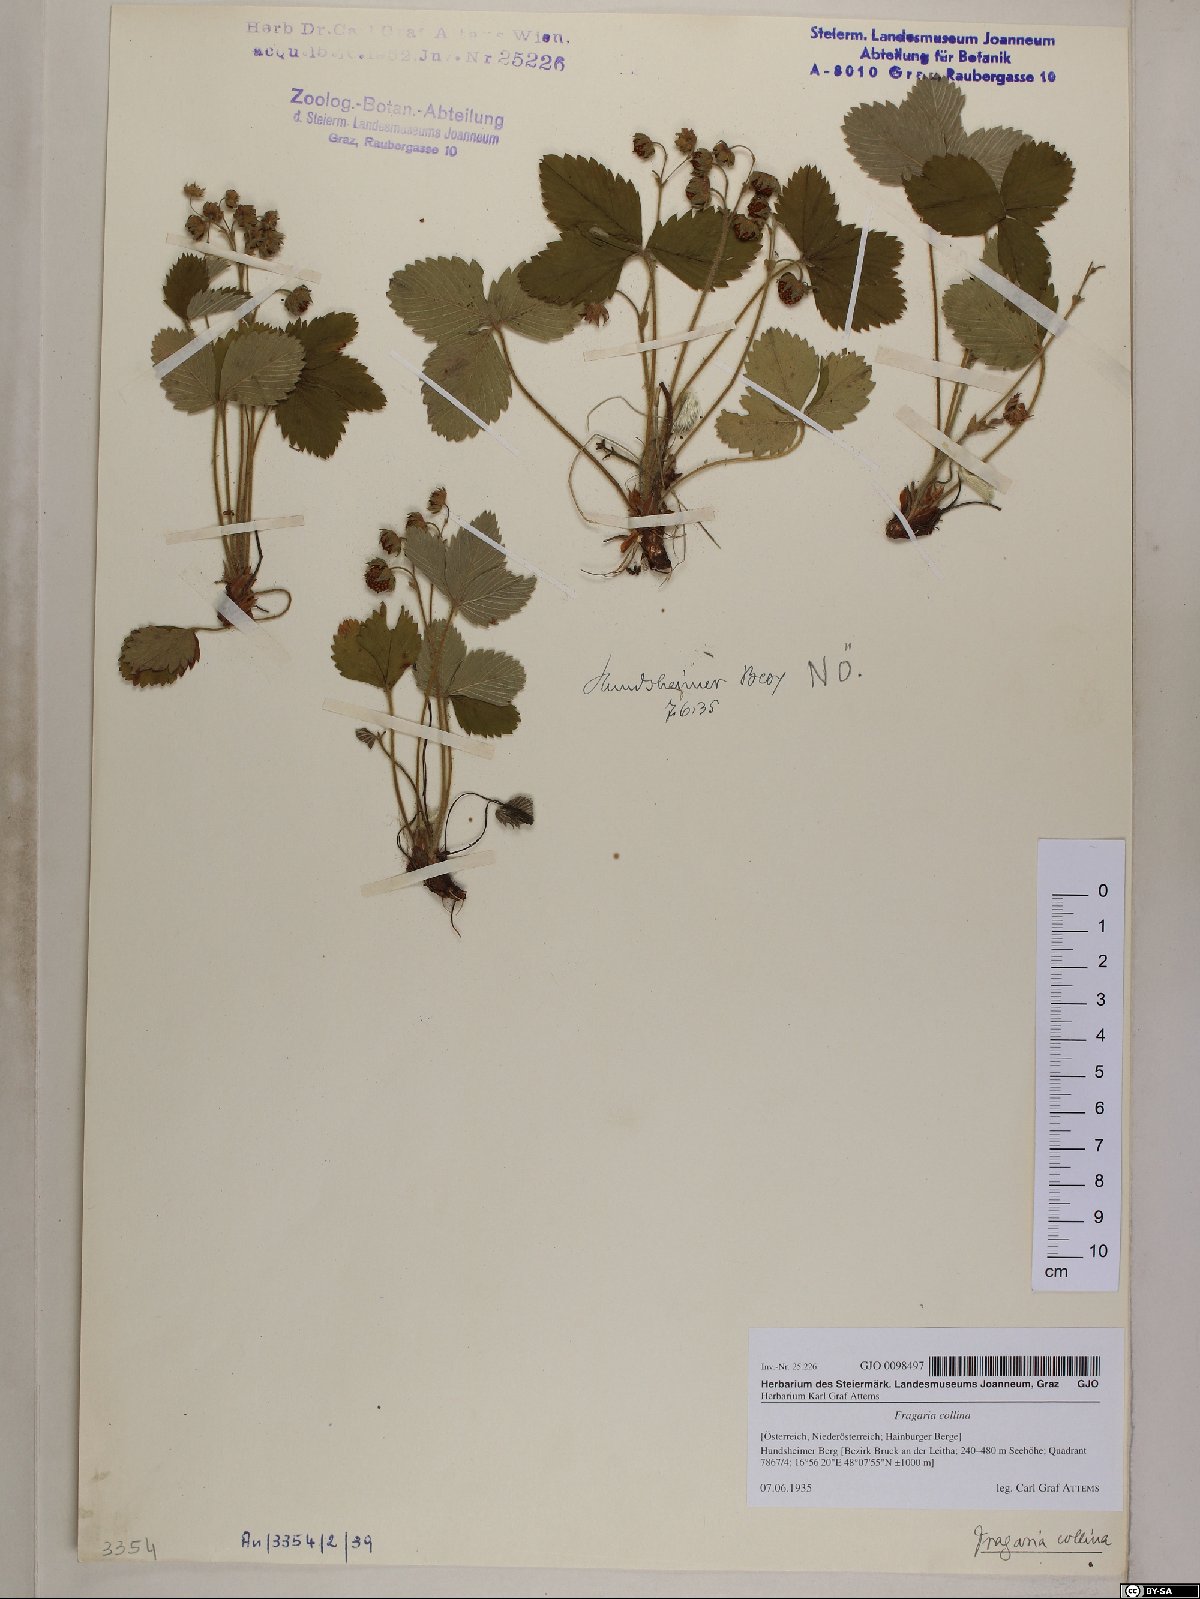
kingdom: Plantae
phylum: Tracheophyta
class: Magnoliopsida
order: Rosales
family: Rosaceae
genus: Fragaria
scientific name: Fragaria viridis
